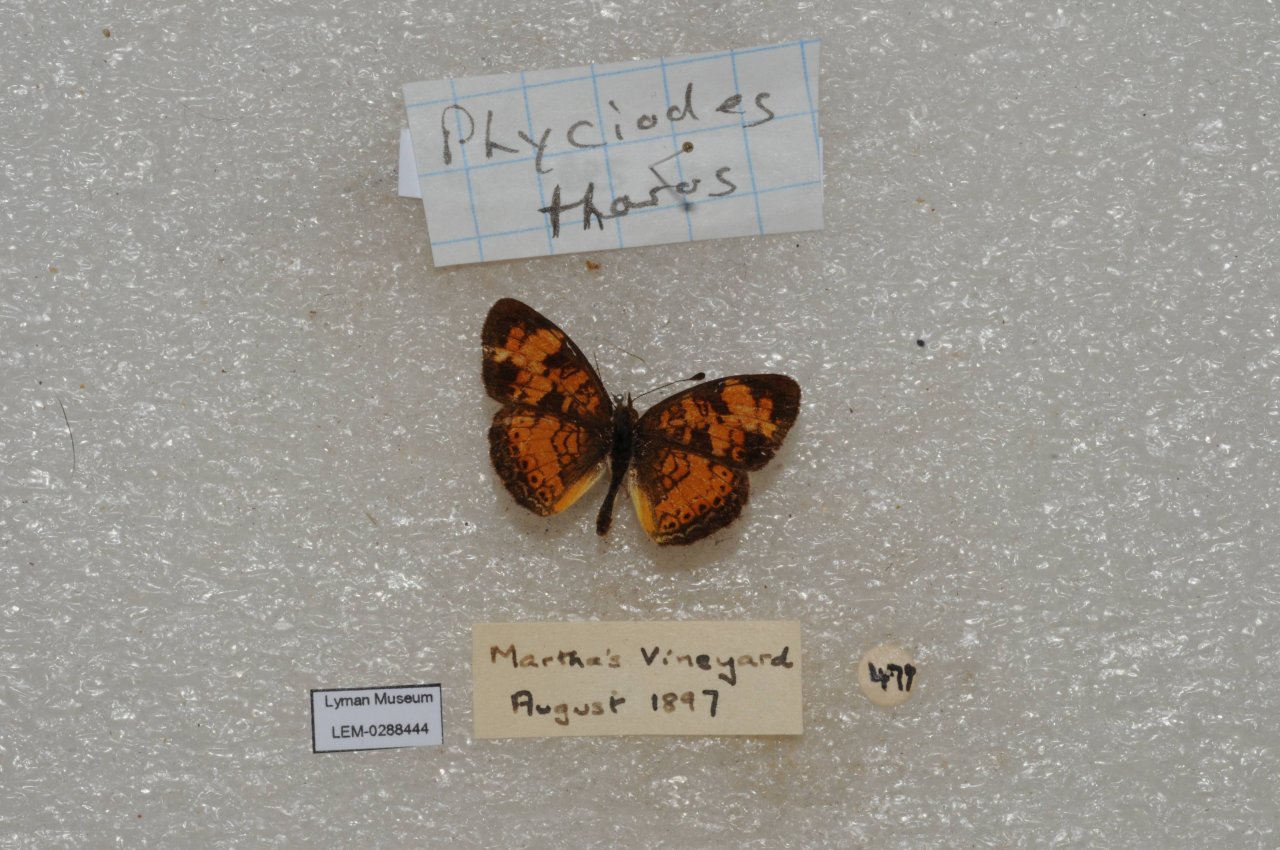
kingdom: Animalia
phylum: Arthropoda
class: Insecta
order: Lepidoptera
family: Nymphalidae
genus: Phyciodes
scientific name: Phyciodes tharos
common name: Pearl Crescent
